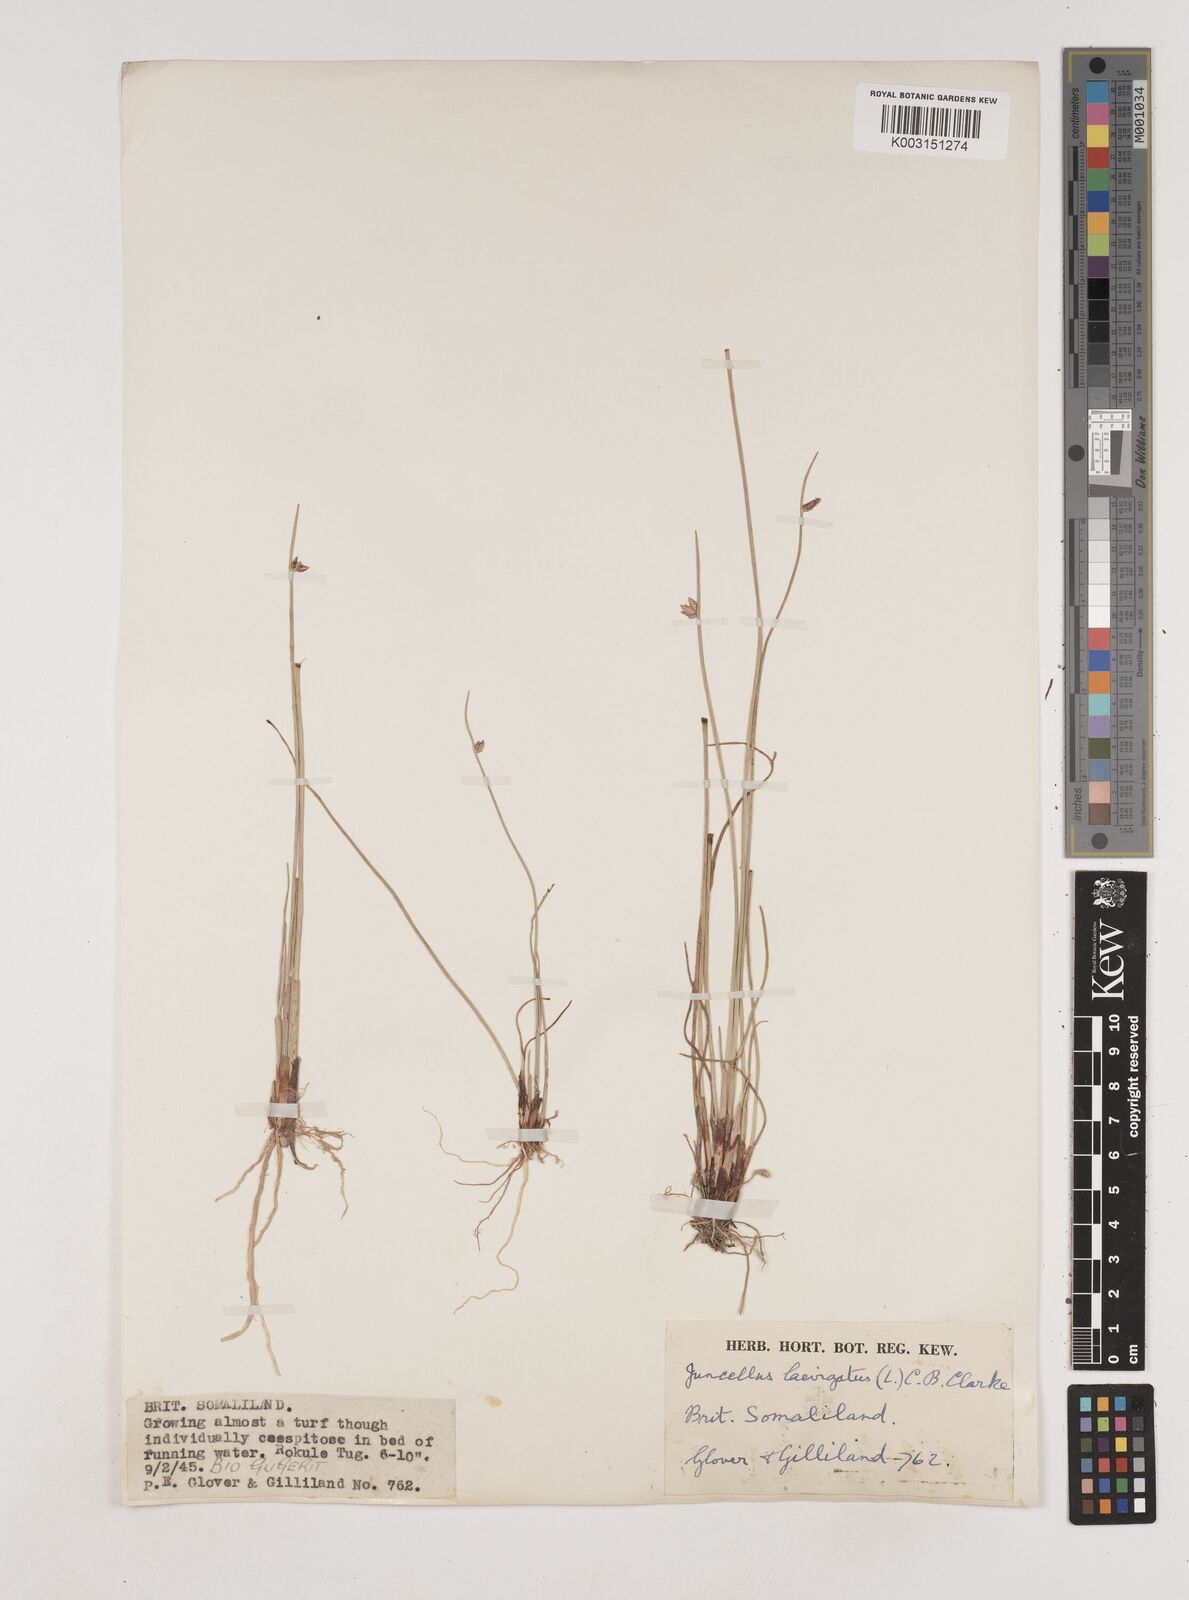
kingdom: Plantae
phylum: Tracheophyta
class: Liliopsida
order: Poales
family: Cyperaceae
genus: Cyperus
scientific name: Cyperus laevigatus
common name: Smooth flat sedge
